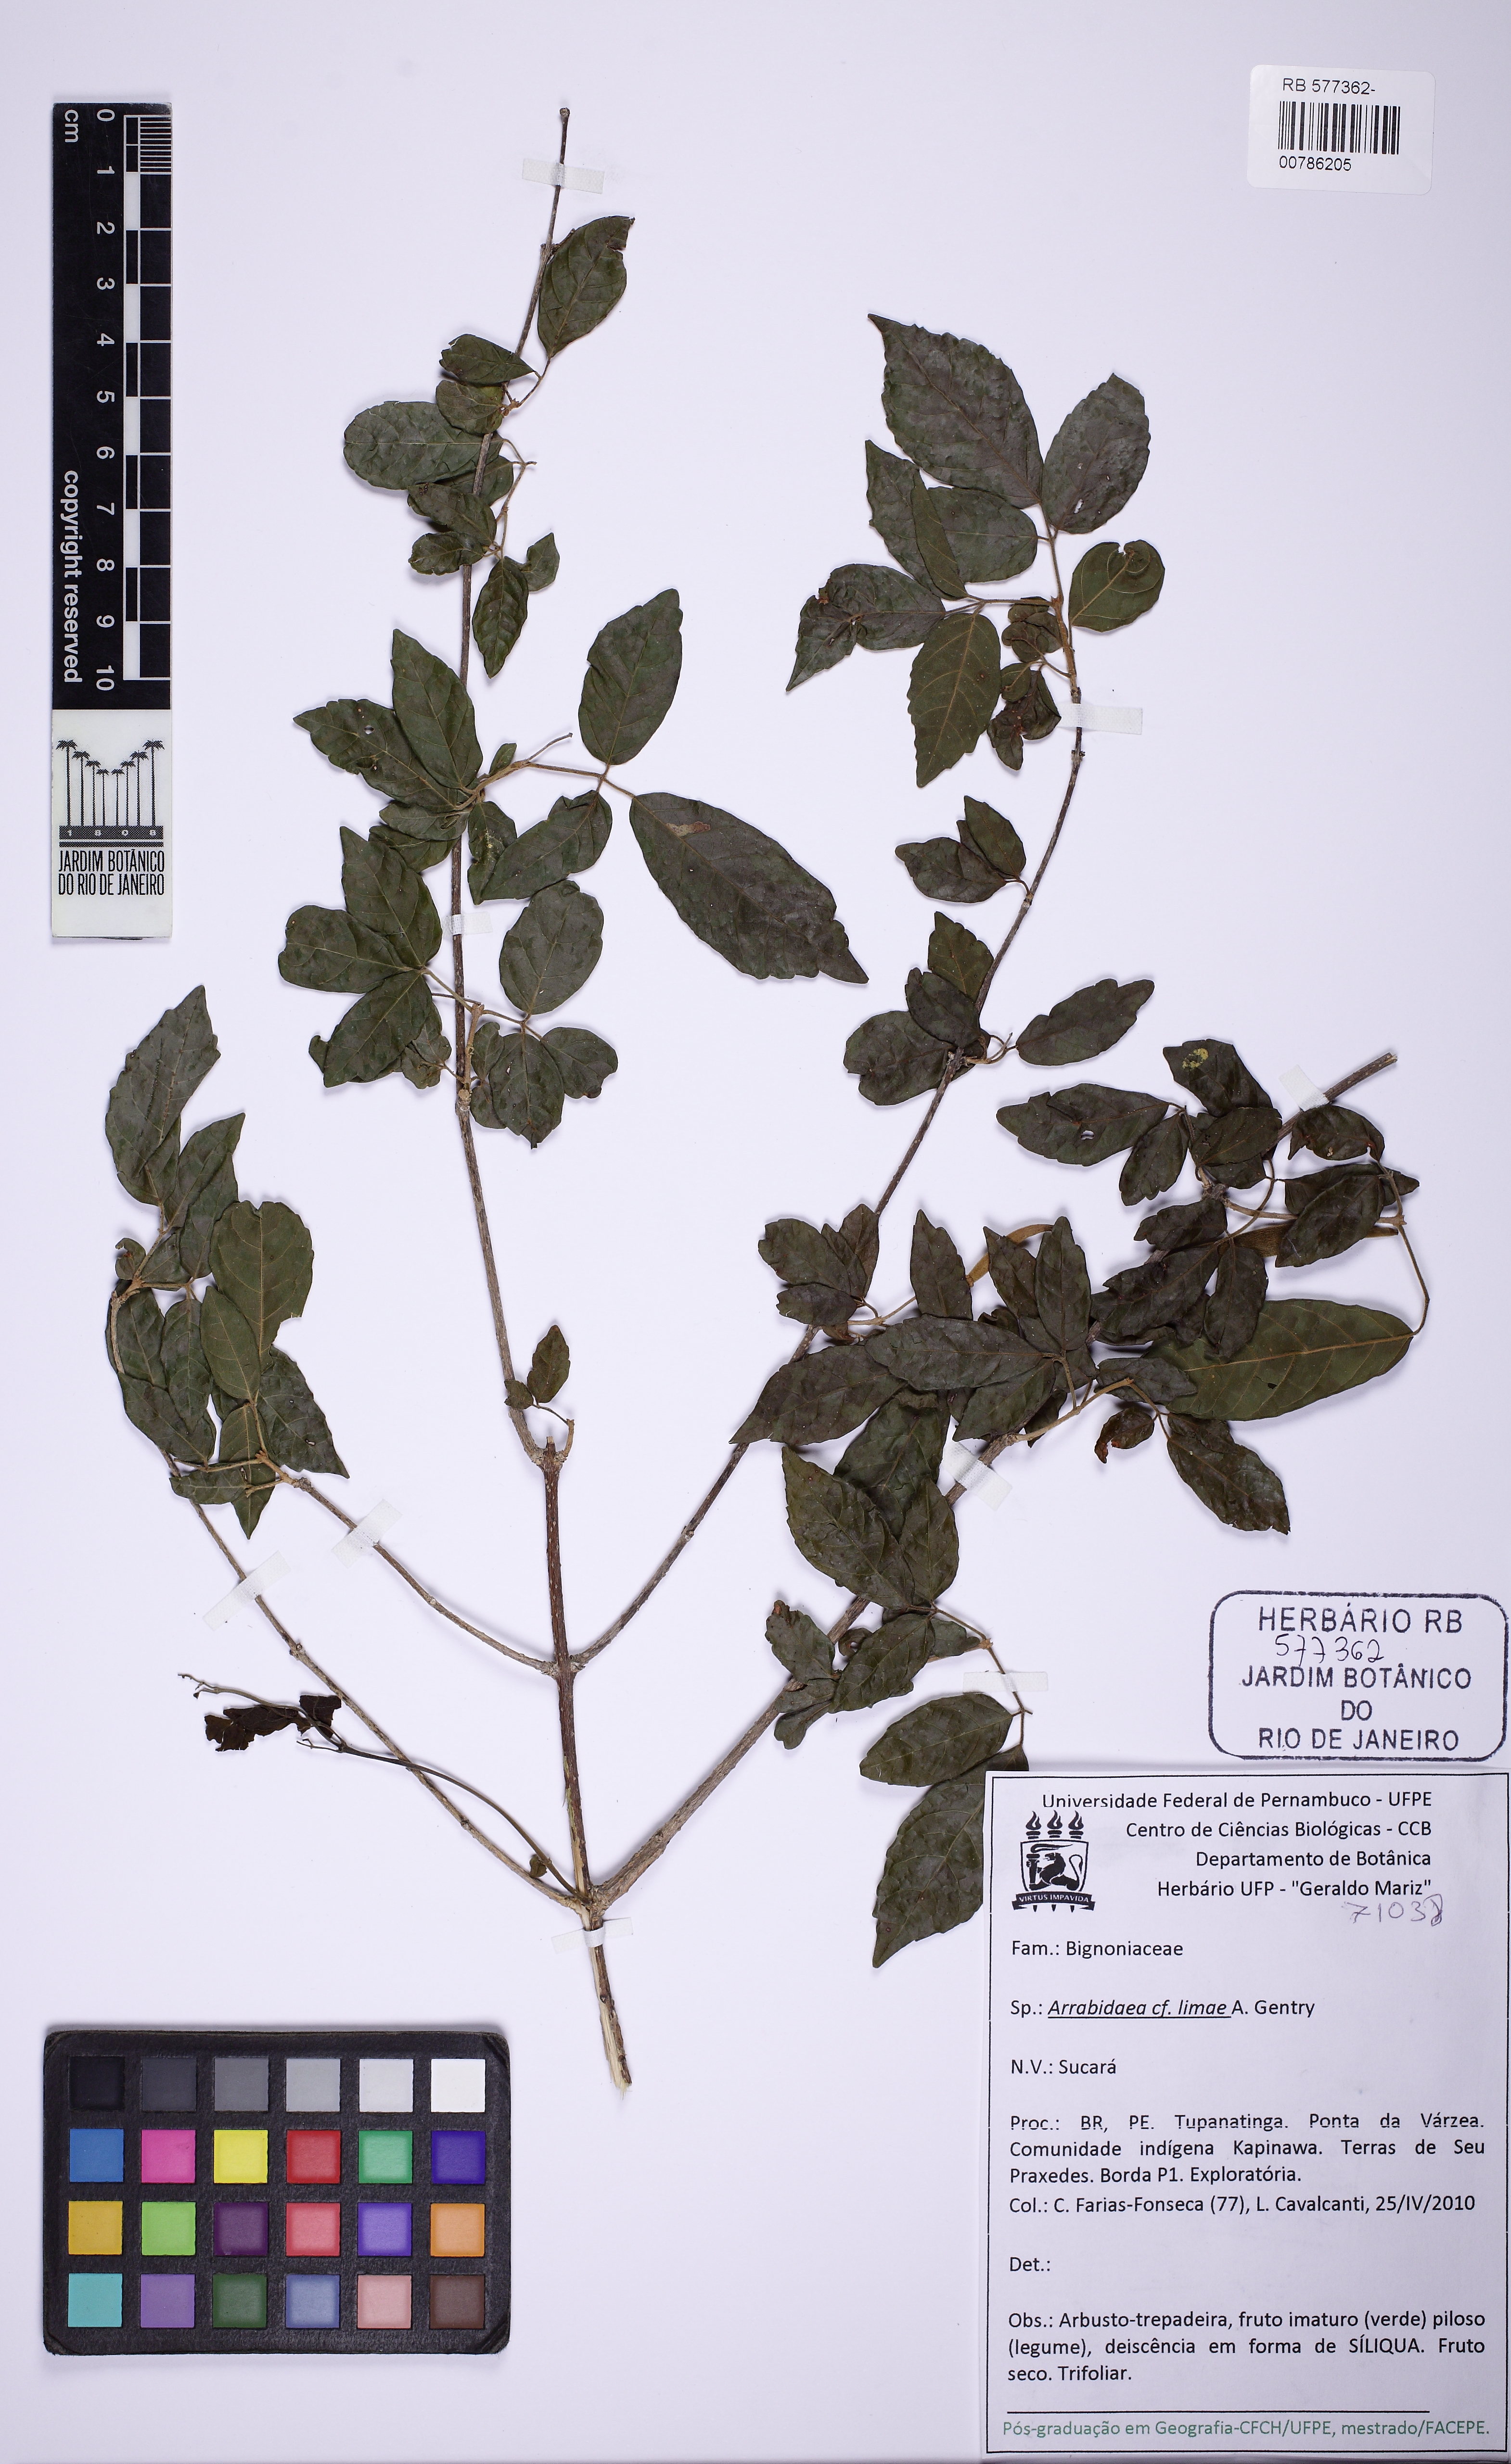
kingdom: Plantae
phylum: Tracheophyta
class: Magnoliopsida
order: Piperales
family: Piperaceae
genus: Piper
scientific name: Piper
